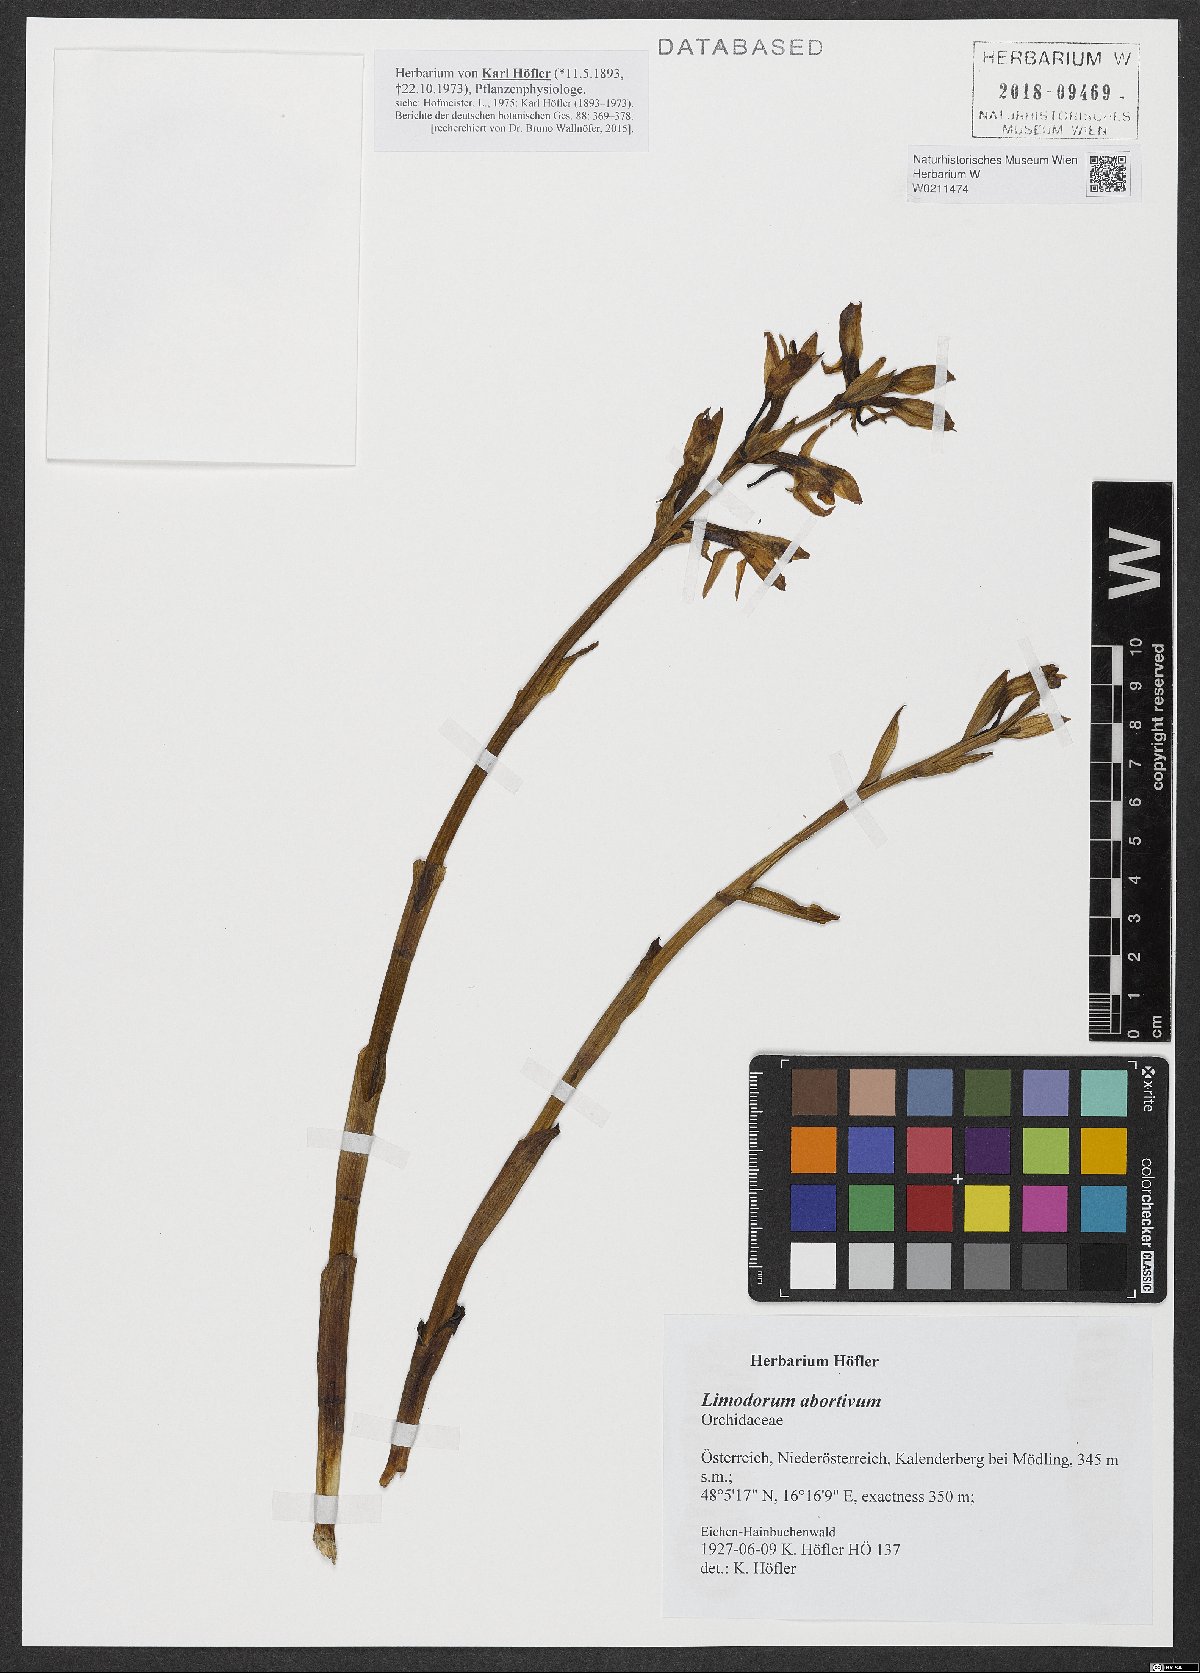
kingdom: Plantae
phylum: Tracheophyta
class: Liliopsida
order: Asparagales
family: Orchidaceae
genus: Limodorum
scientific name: Limodorum abortivum
